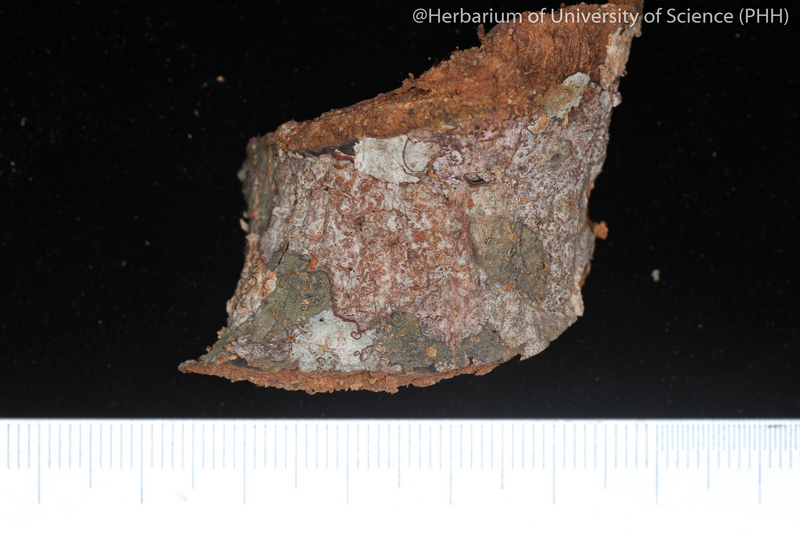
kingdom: Fungi
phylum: Ascomycota
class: Arthoniomycetes
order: Arthoniales
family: Arthoniaceae
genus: Arthonia
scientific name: Arthonia
